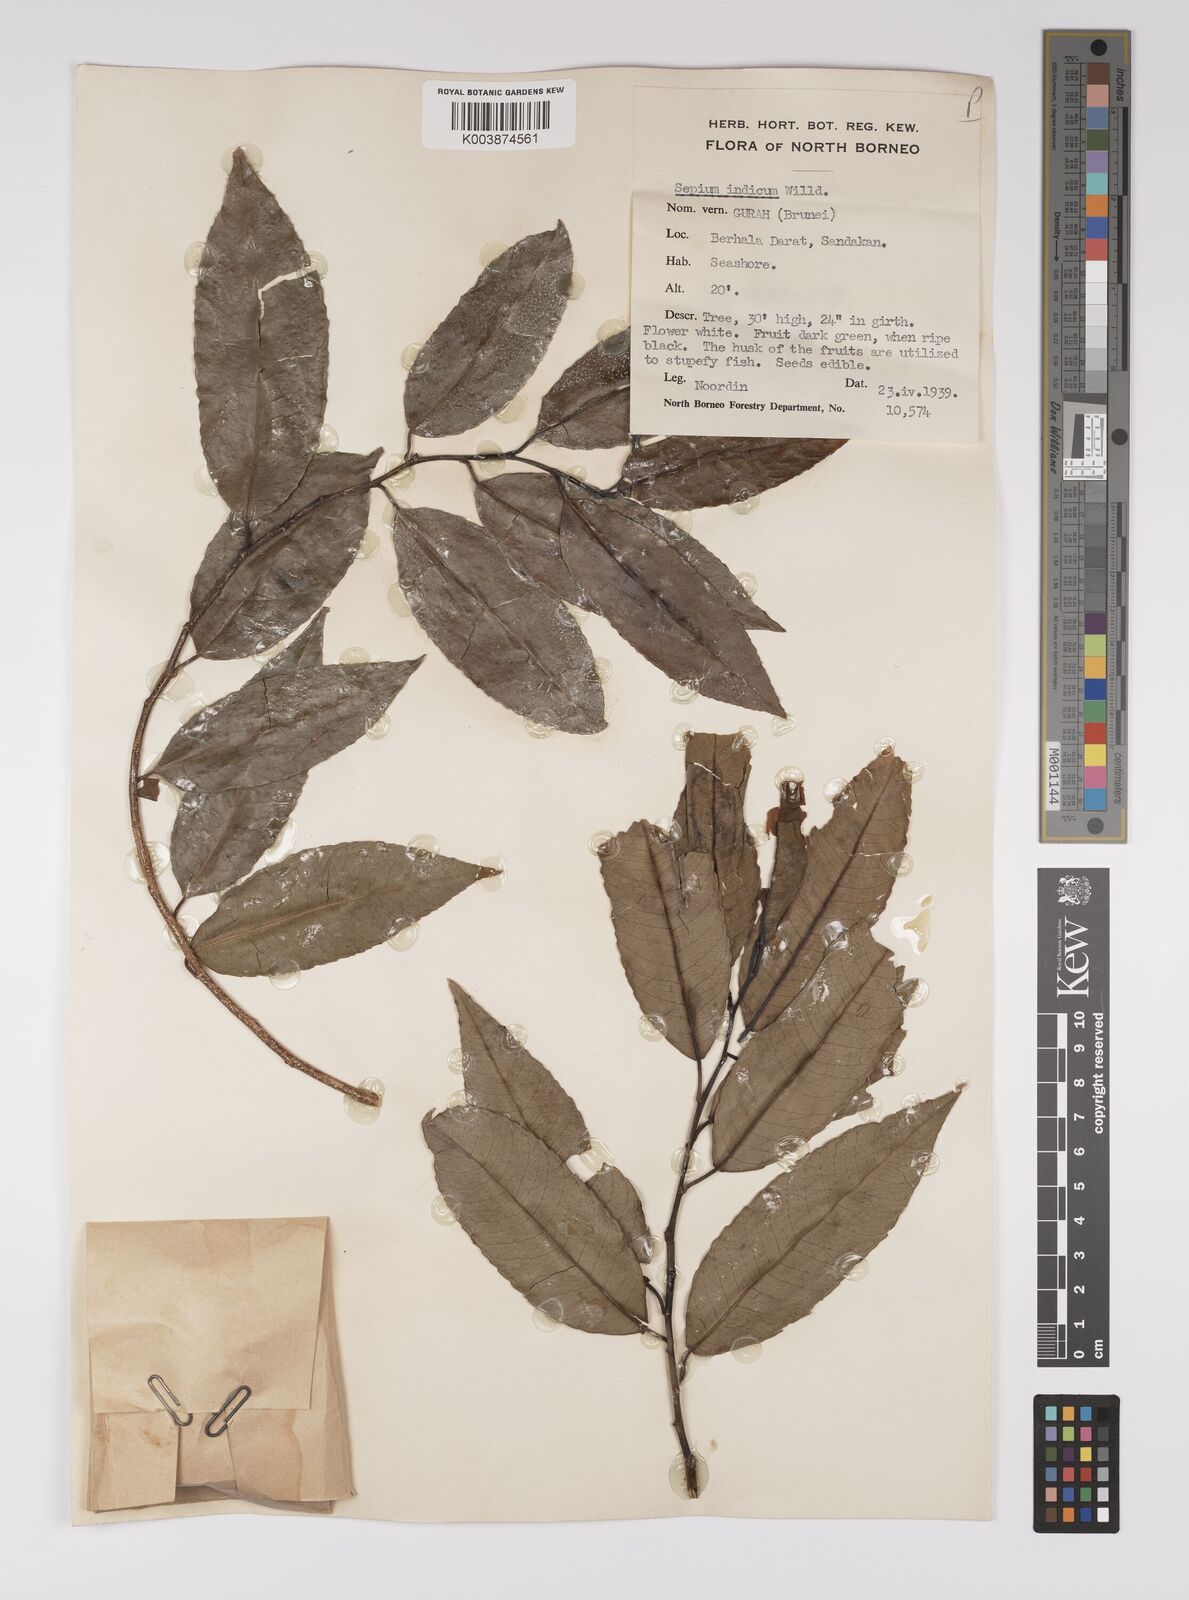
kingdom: Plantae
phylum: Tracheophyta
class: Magnoliopsida
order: Malpighiales
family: Euphorbiaceae
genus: Shirakiopsis
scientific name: Shirakiopsis indica
